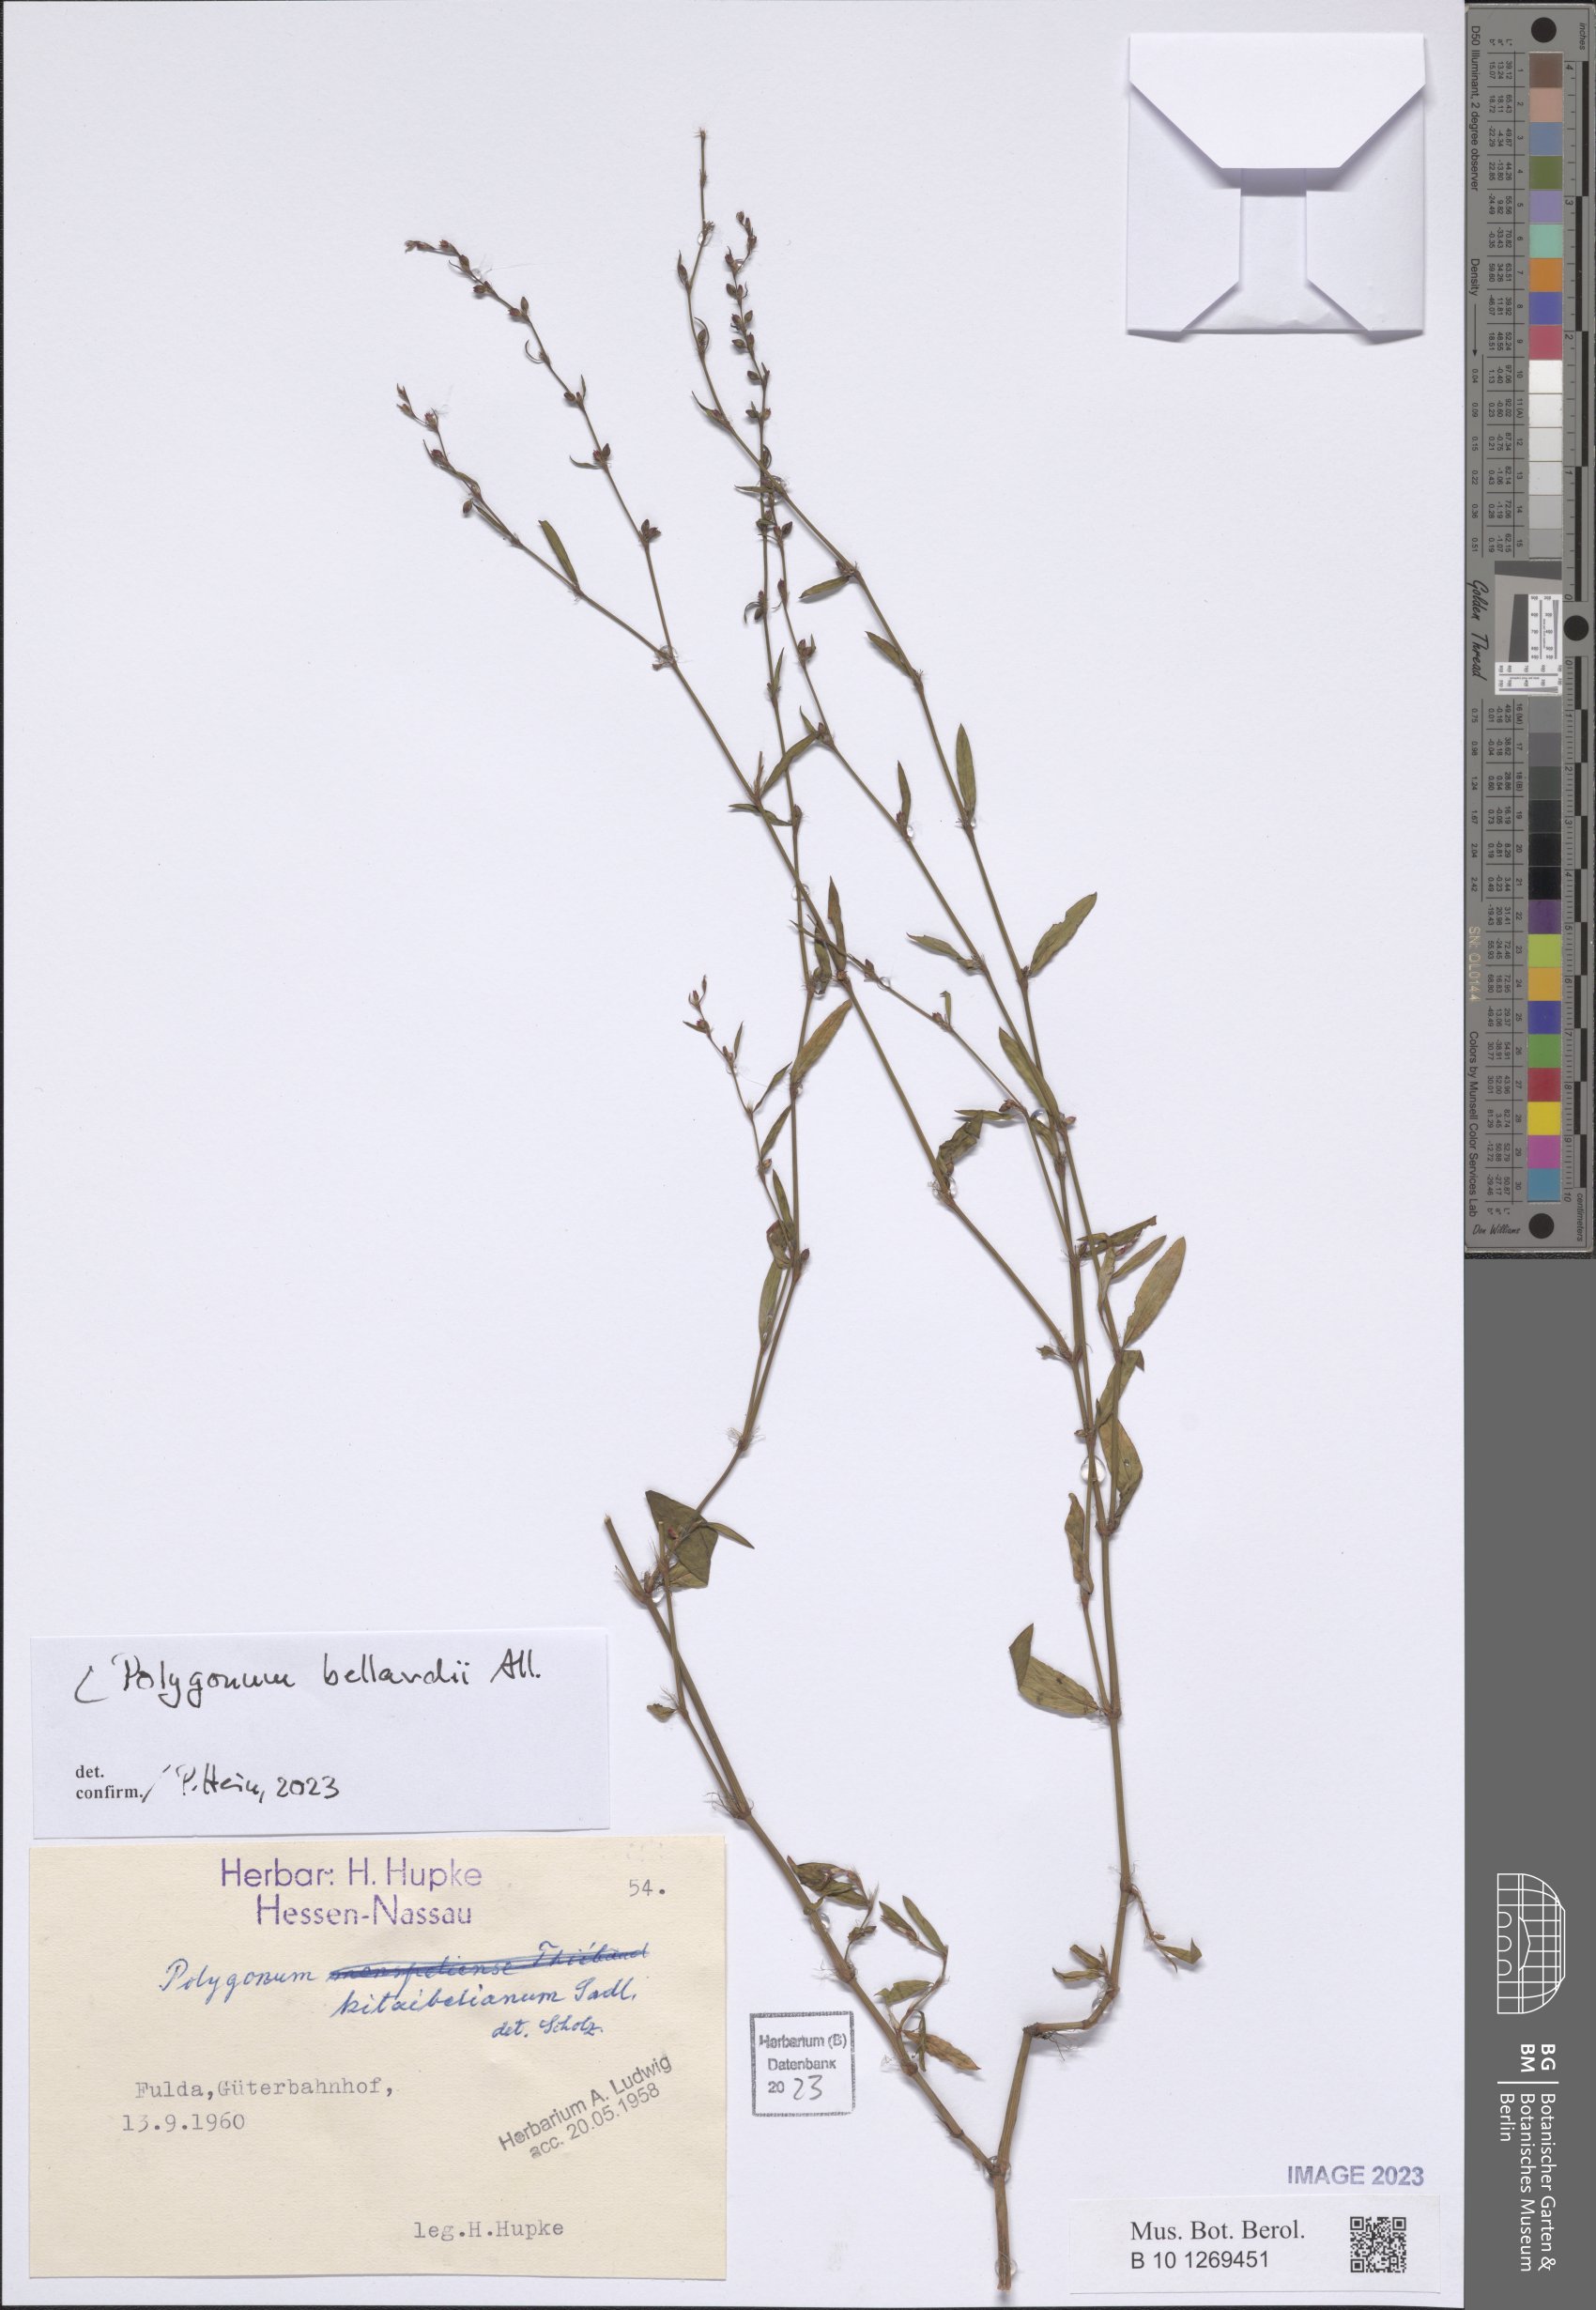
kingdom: Plantae
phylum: Tracheophyta
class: Magnoliopsida
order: Caryophyllales
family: Polygonaceae
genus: Polygonum
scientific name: Polygonum bellardii
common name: Narrowleaf knotweed
